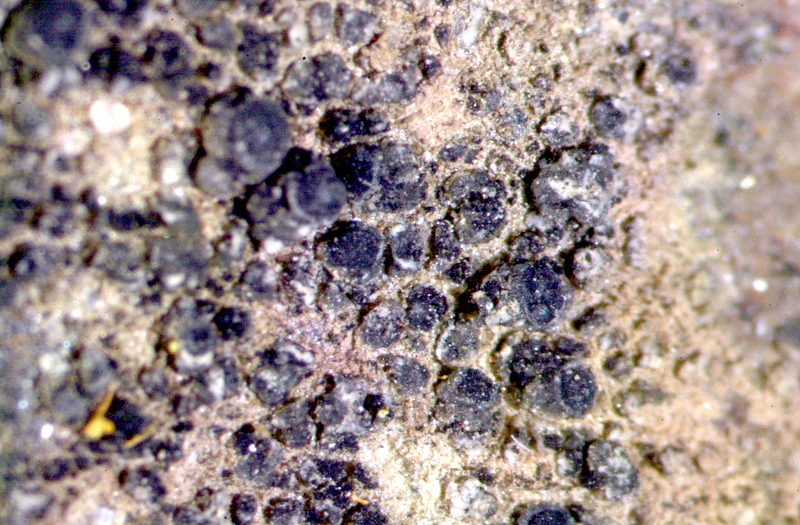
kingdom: Fungi
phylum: Ascomycota
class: Lecanoromycetes
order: Caliciales
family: Caliciaceae
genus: Buellia
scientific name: Buellia
